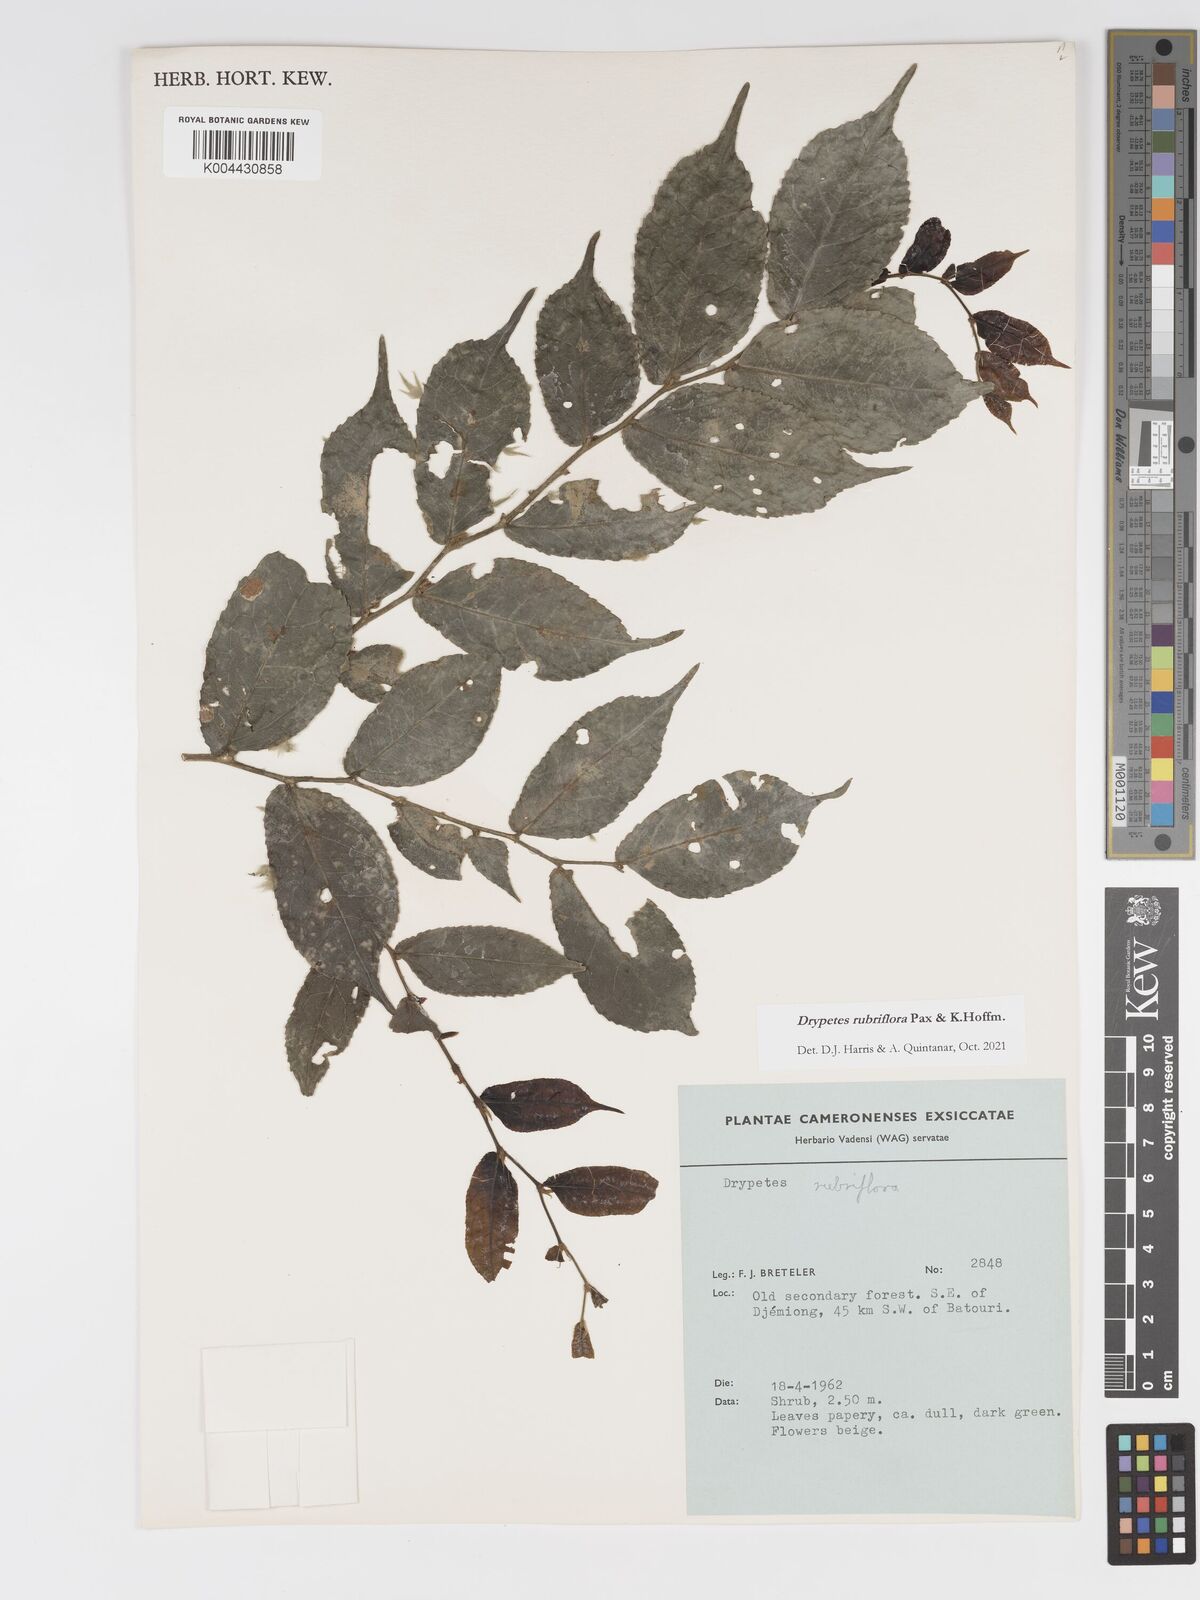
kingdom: Plantae
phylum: Tracheophyta
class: Magnoliopsida
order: Malpighiales
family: Putranjivaceae
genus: Drypetes
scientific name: Drypetes rubriflora
